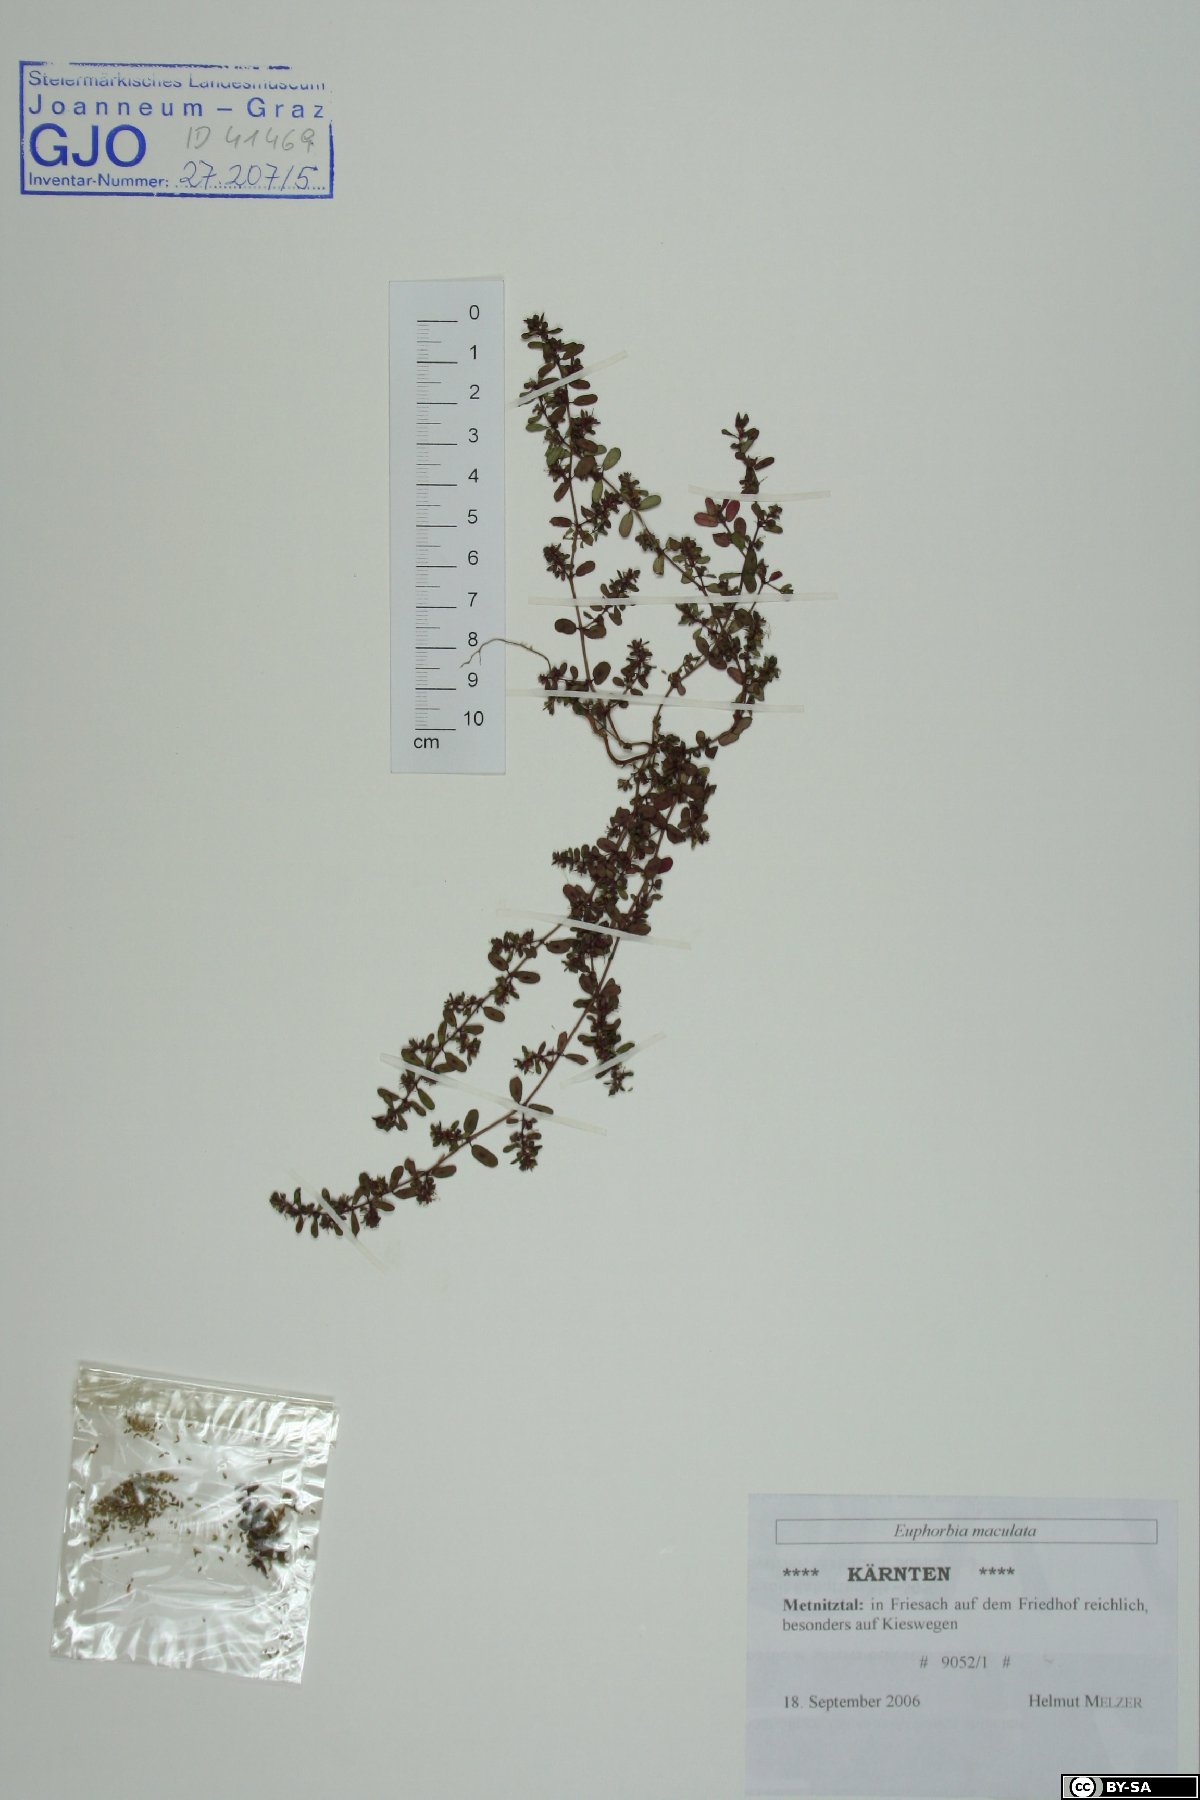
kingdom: Plantae
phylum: Tracheophyta
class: Magnoliopsida
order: Malpighiales
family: Euphorbiaceae
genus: Euphorbia
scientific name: Euphorbia maculata
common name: Spotted spurge
